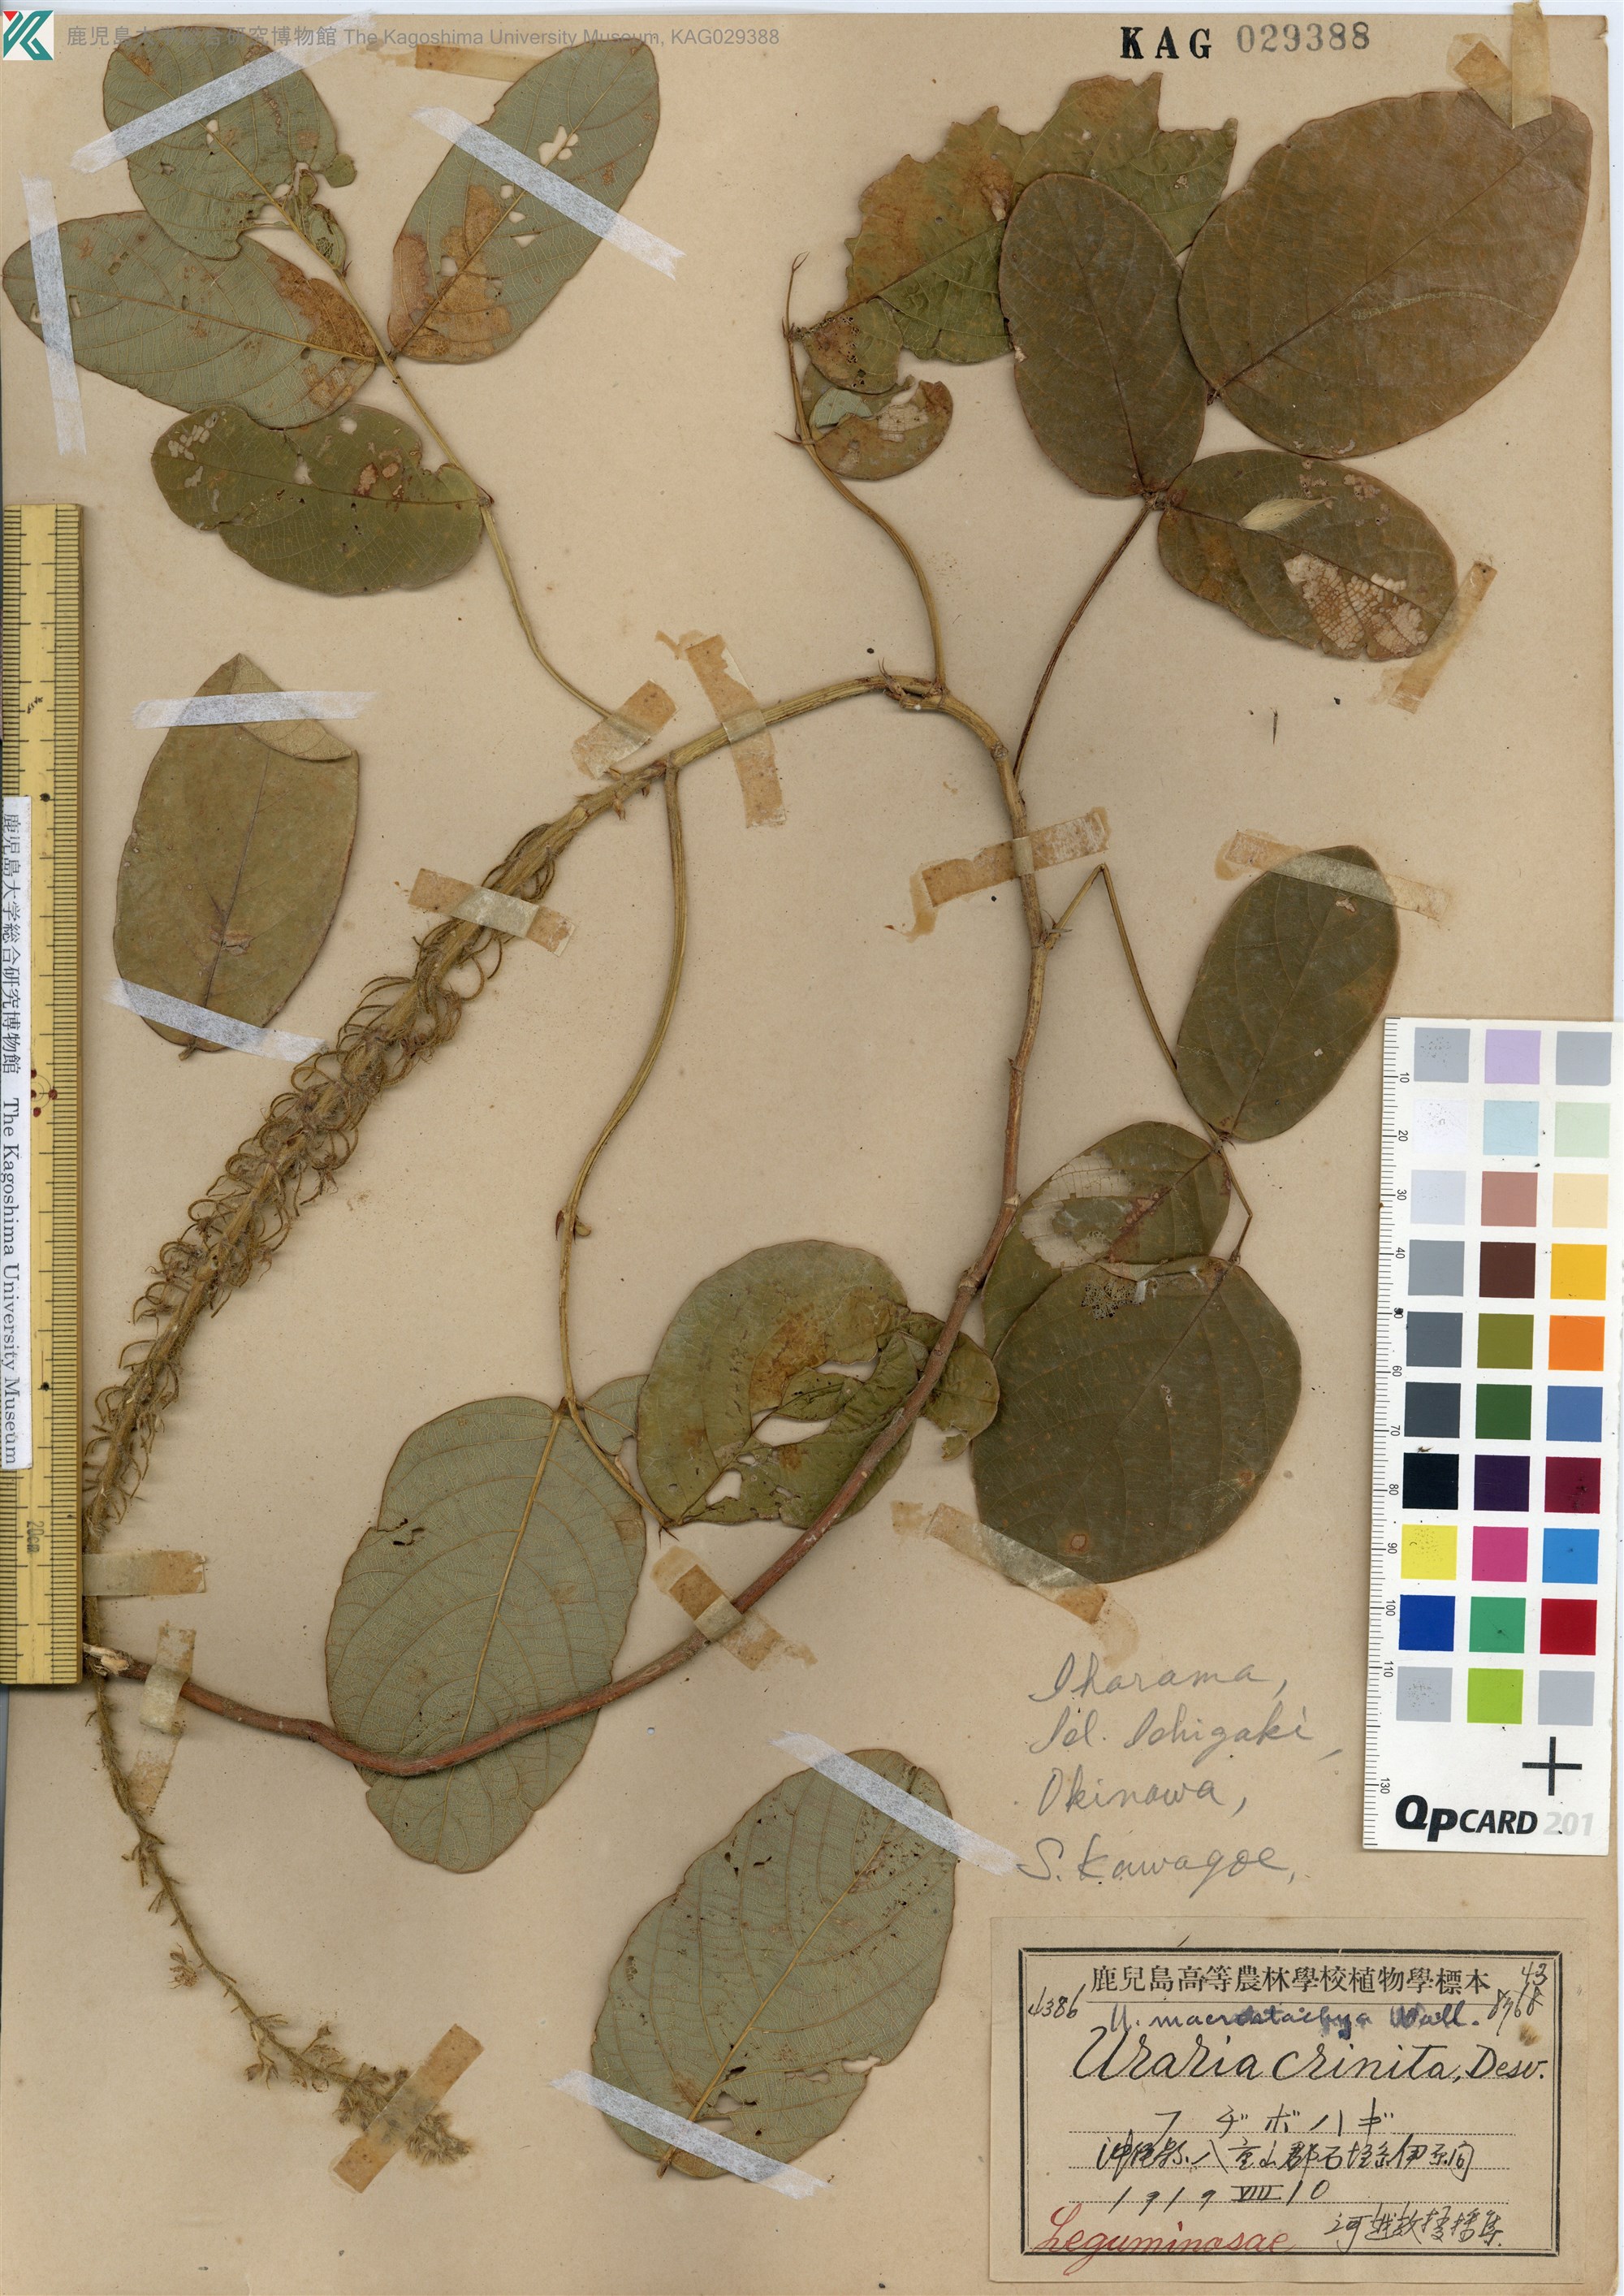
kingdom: Plantae
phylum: Tracheophyta
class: Magnoliopsida
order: Fabales
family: Fabaceae
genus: Uraria
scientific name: Uraria crinita
